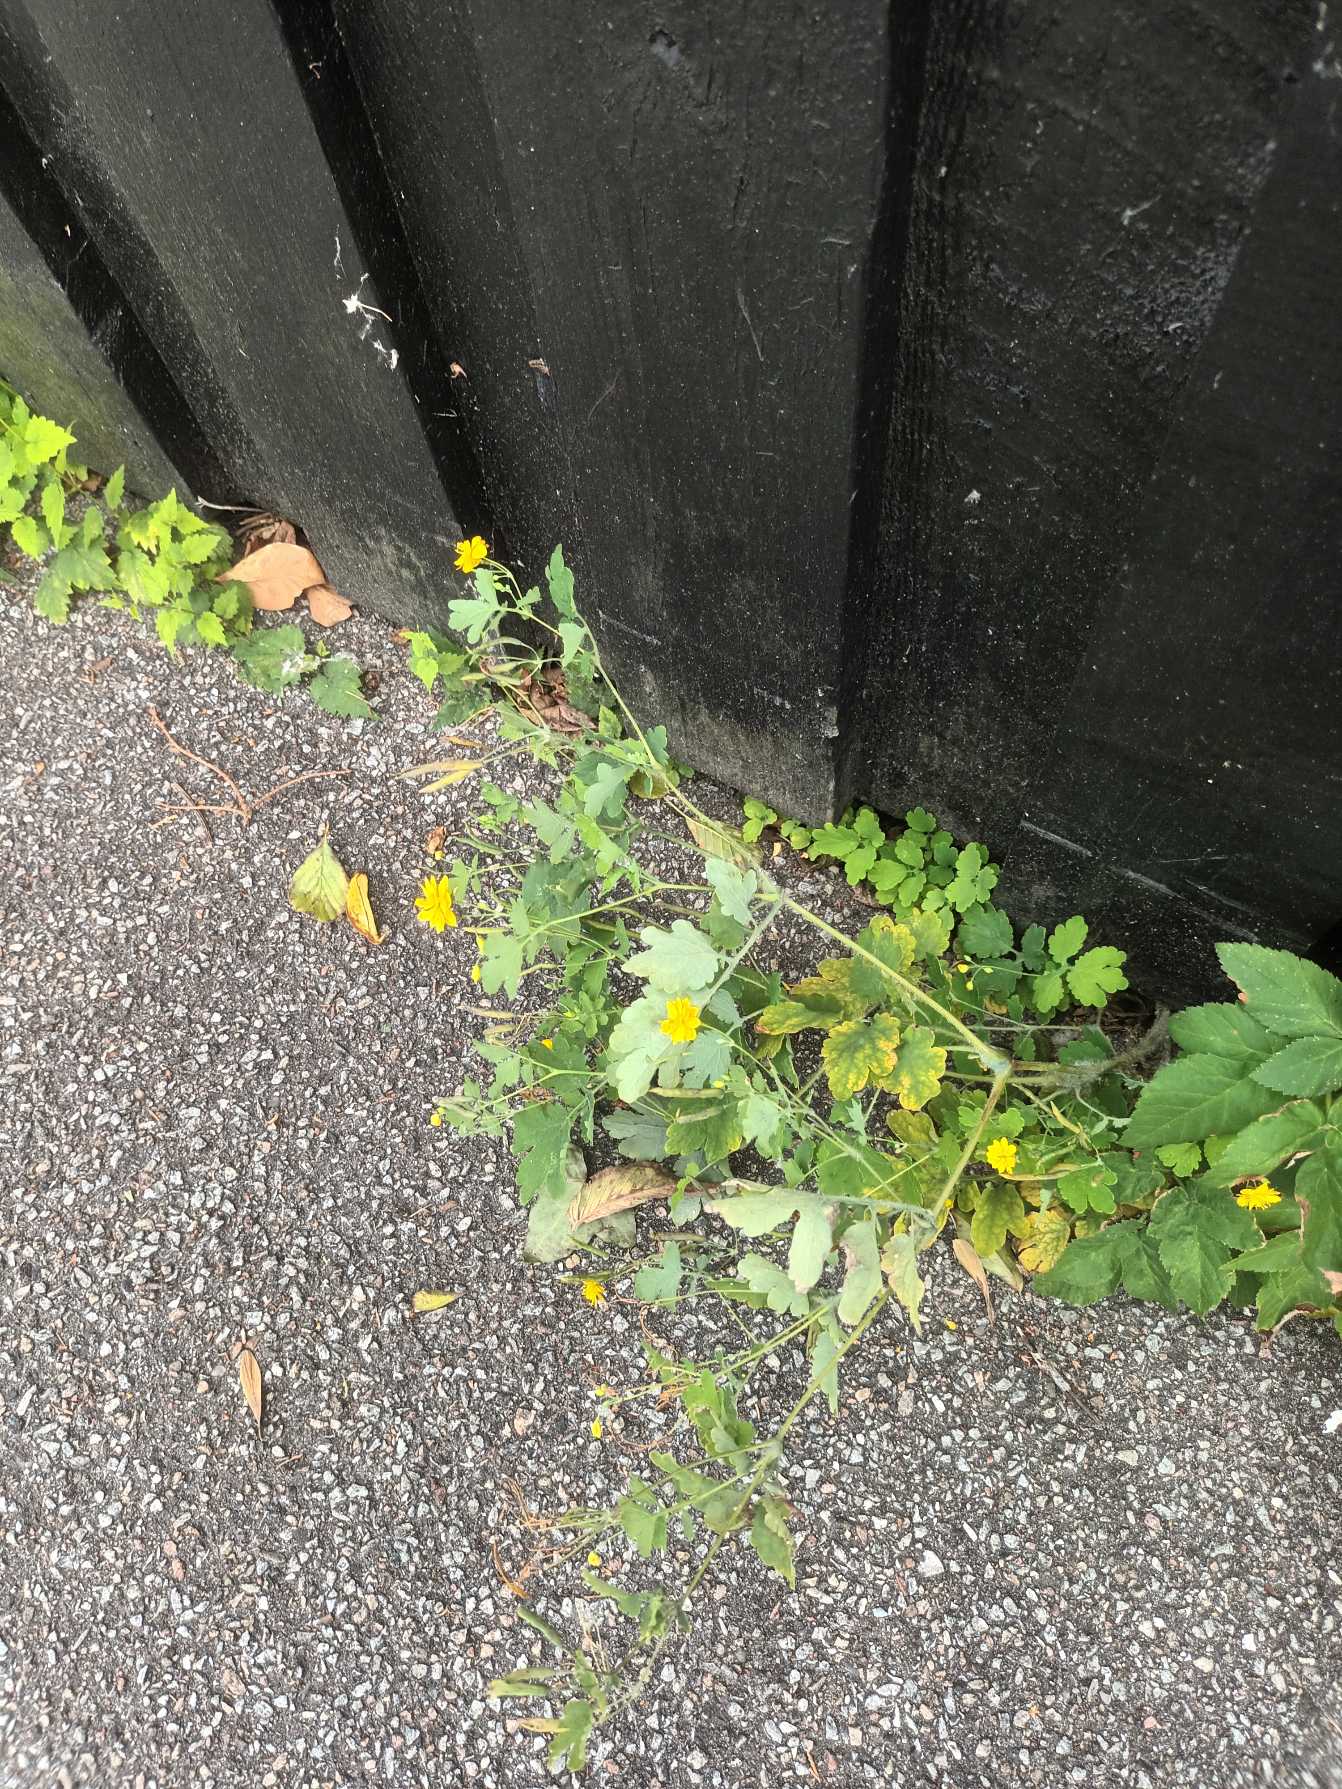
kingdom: Plantae
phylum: Tracheophyta
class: Magnoliopsida
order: Ranunculales
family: Papaveraceae
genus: Chelidonium
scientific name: Chelidonium majus
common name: Svaleurt
